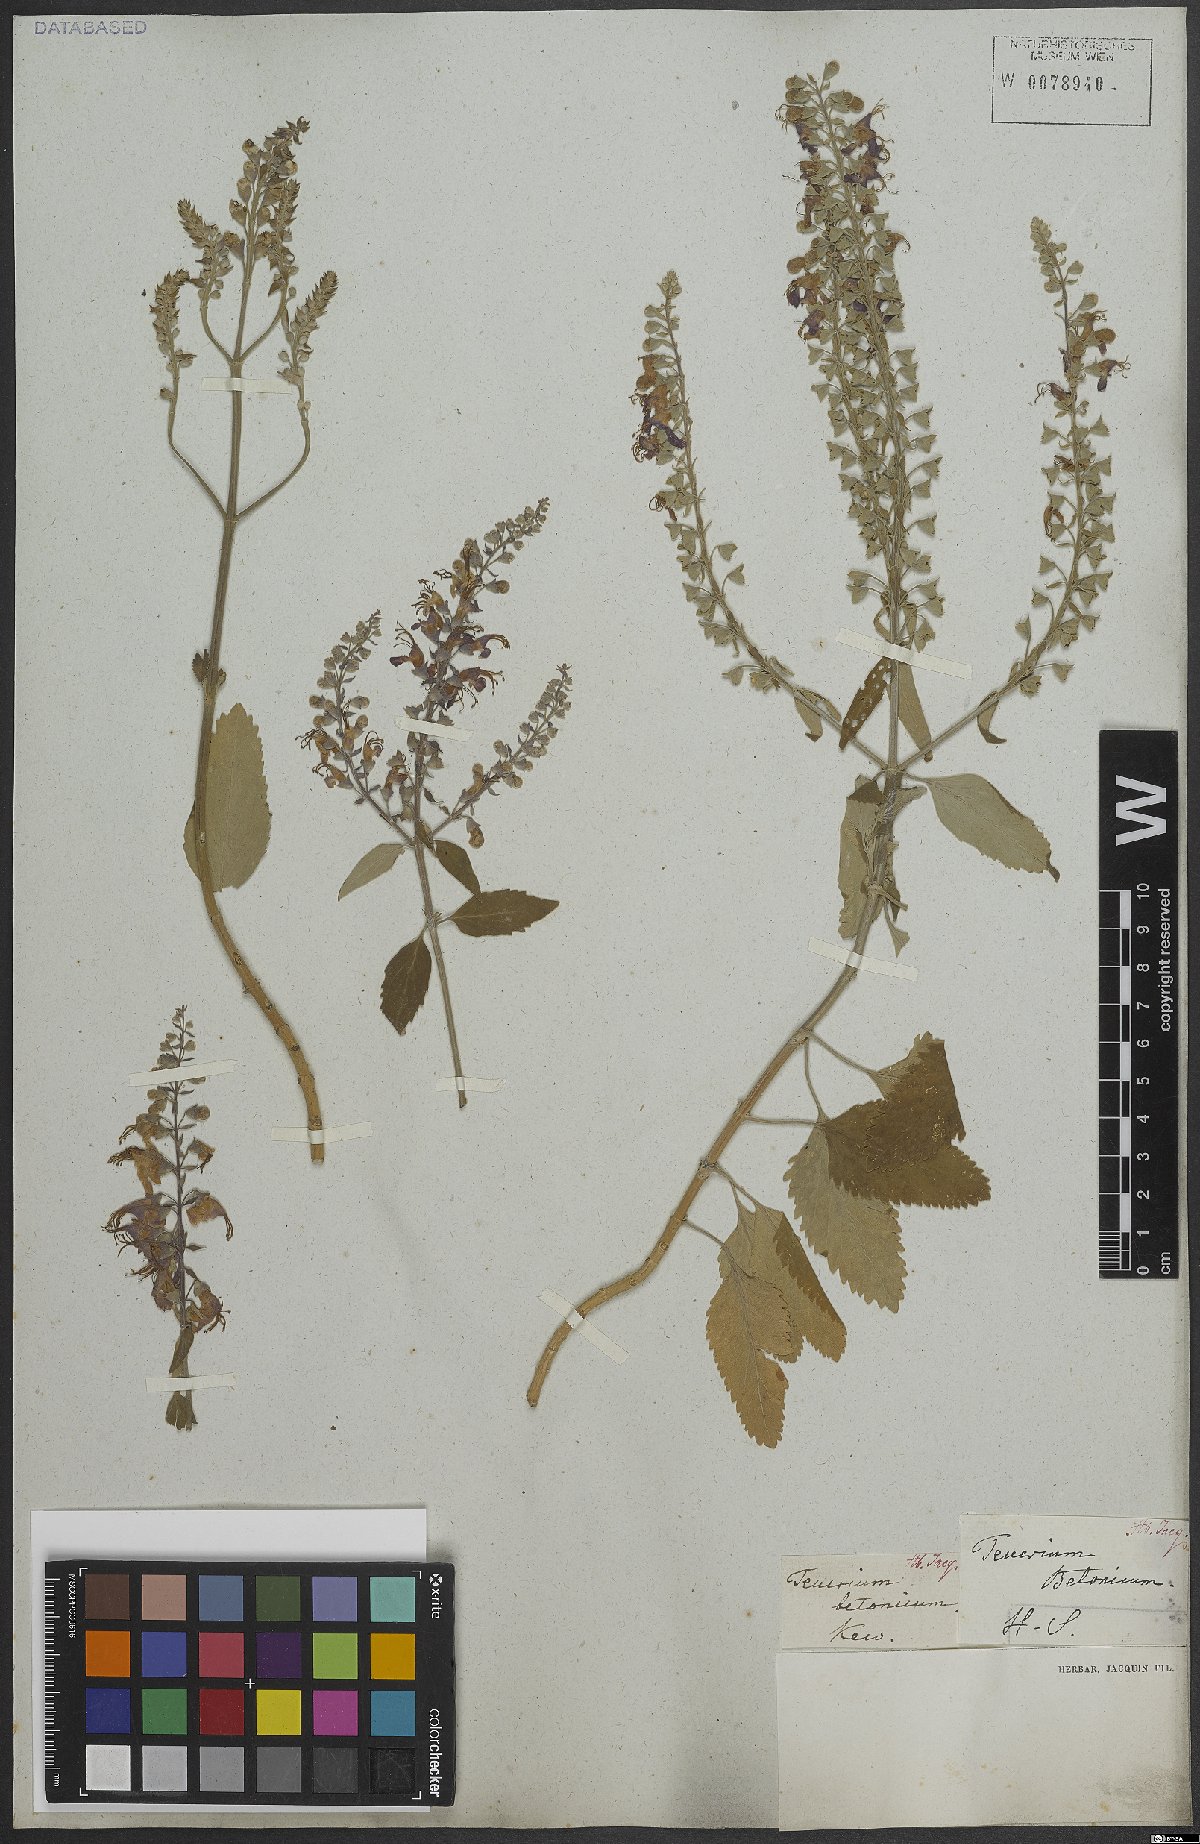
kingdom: Plantae
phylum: Tracheophyta
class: Magnoliopsida
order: Lamiales
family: Lamiaceae
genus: Teucrium
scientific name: Teucrium betonicum
